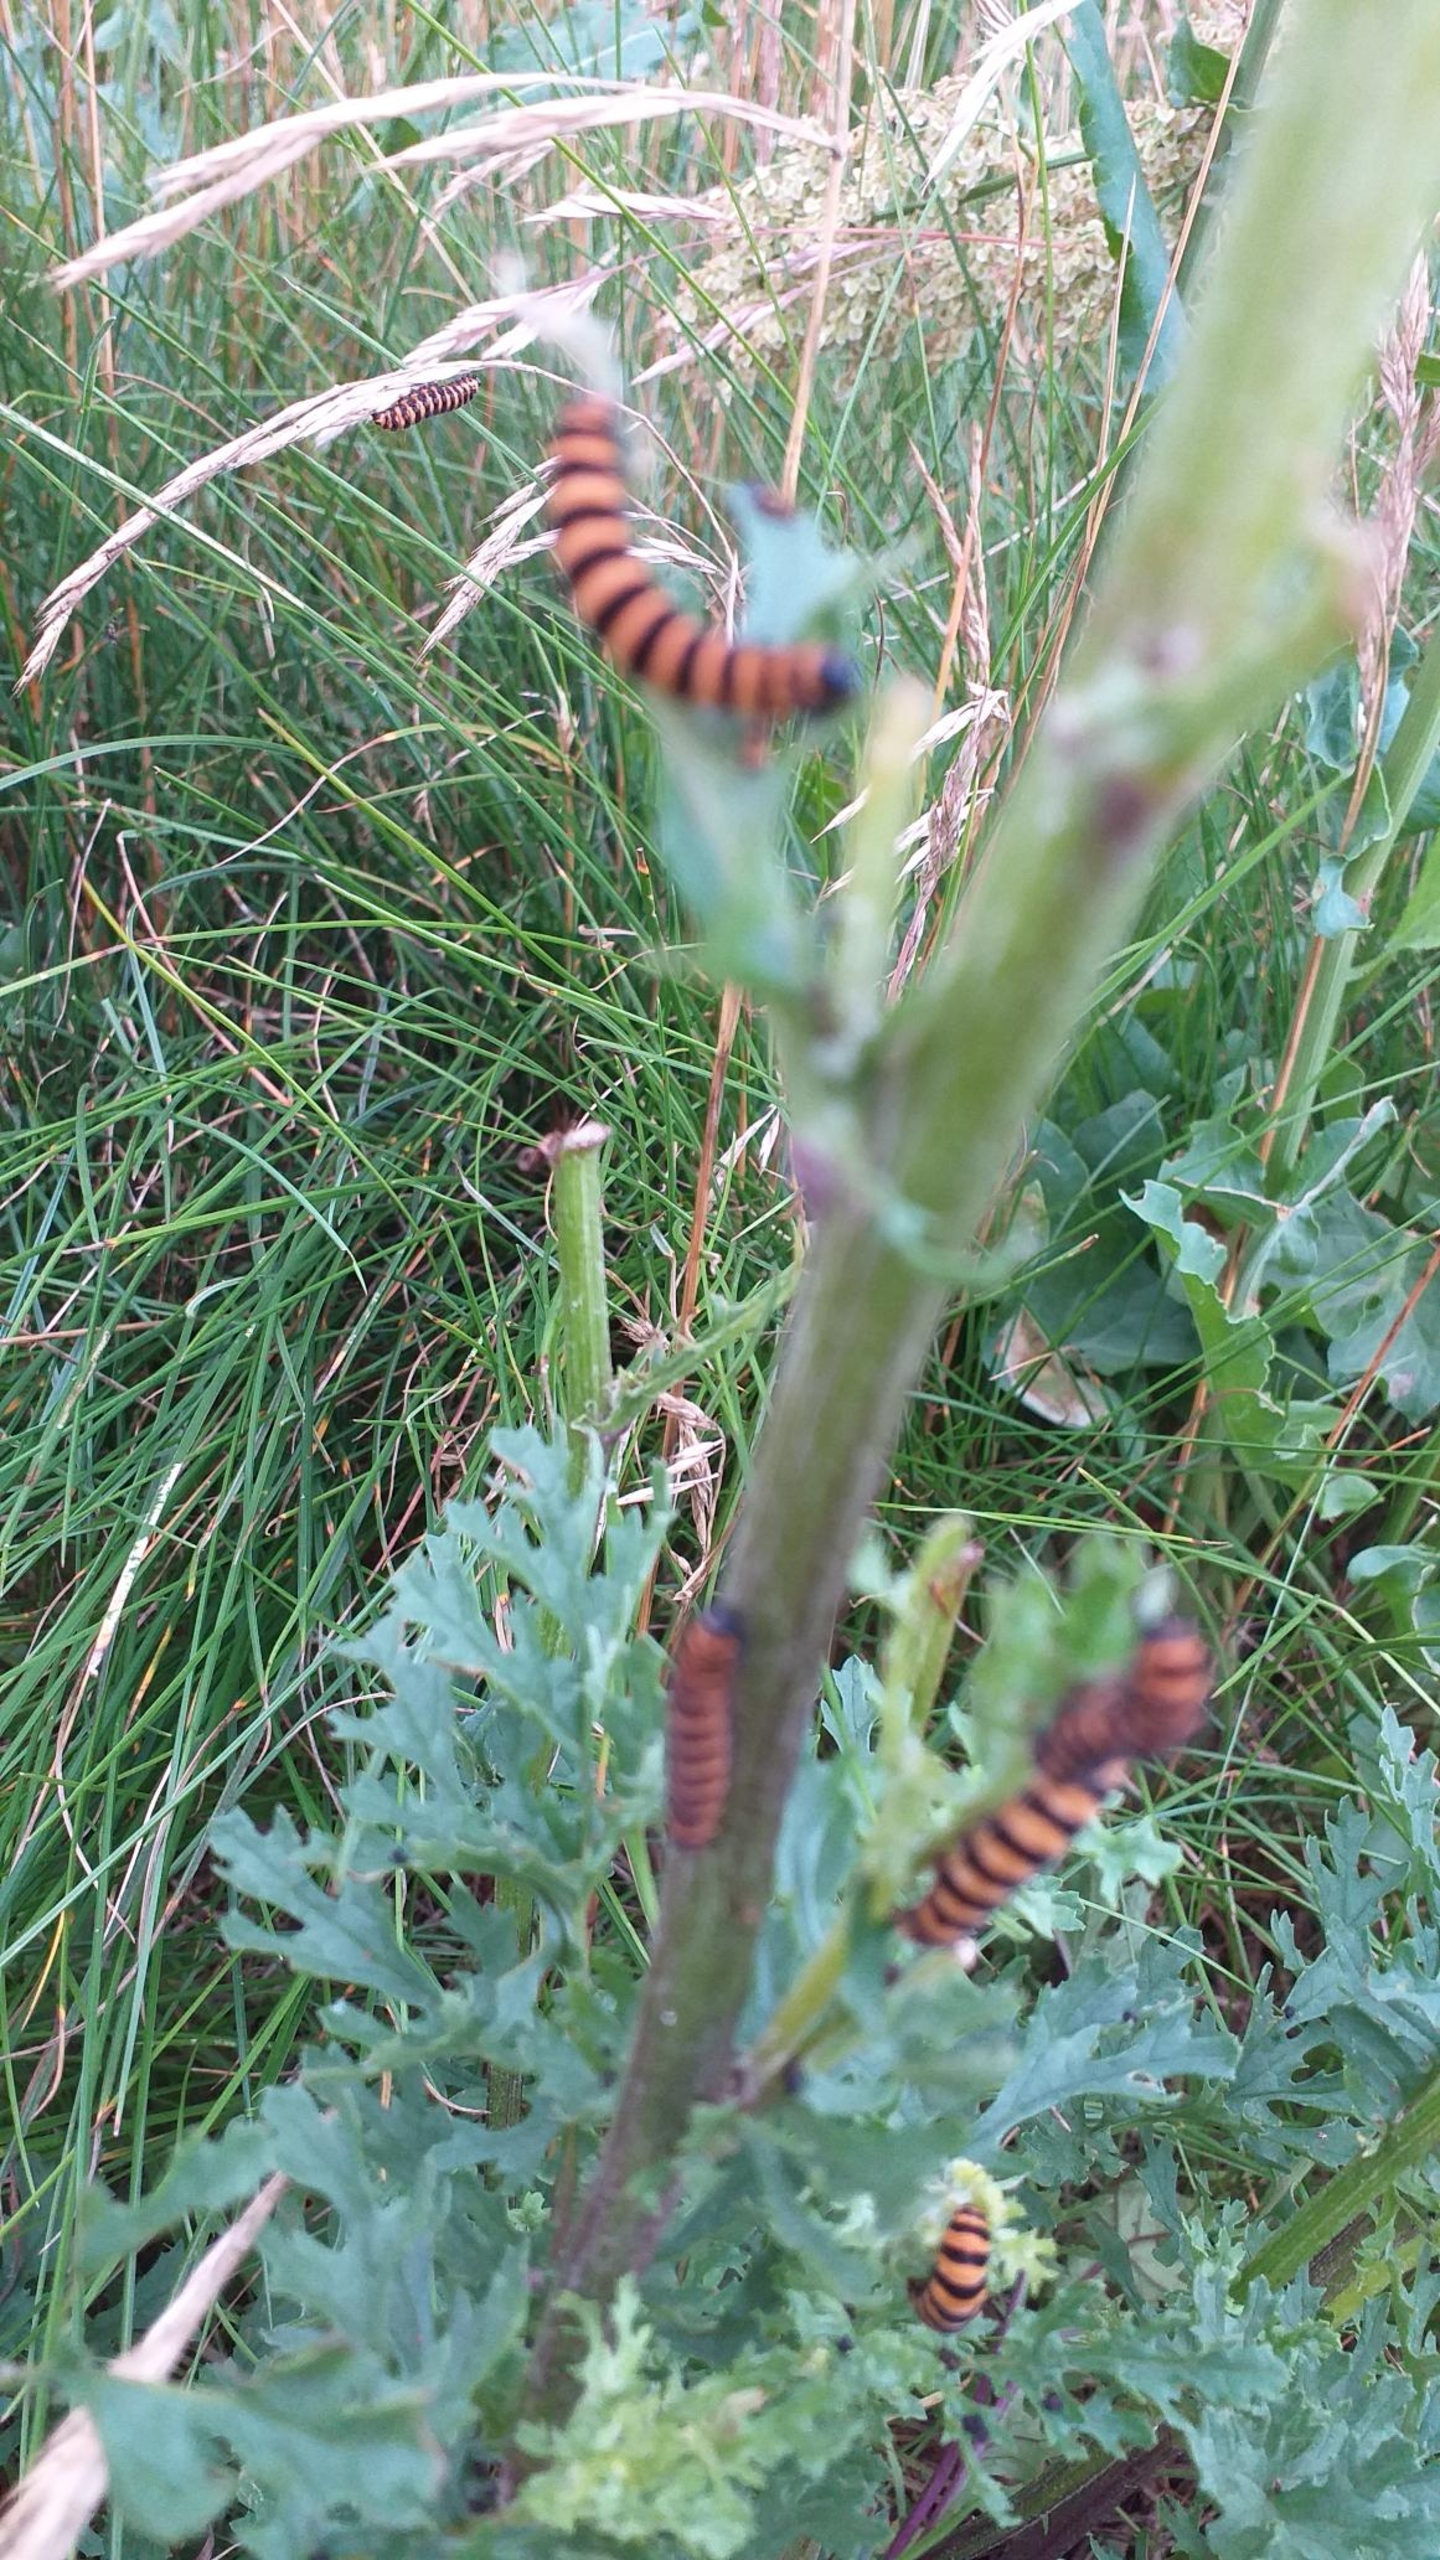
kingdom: Animalia
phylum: Arthropoda
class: Insecta
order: Lepidoptera
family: Erebidae
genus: Tyria
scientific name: Tyria jacobaeae
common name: Blodplet
